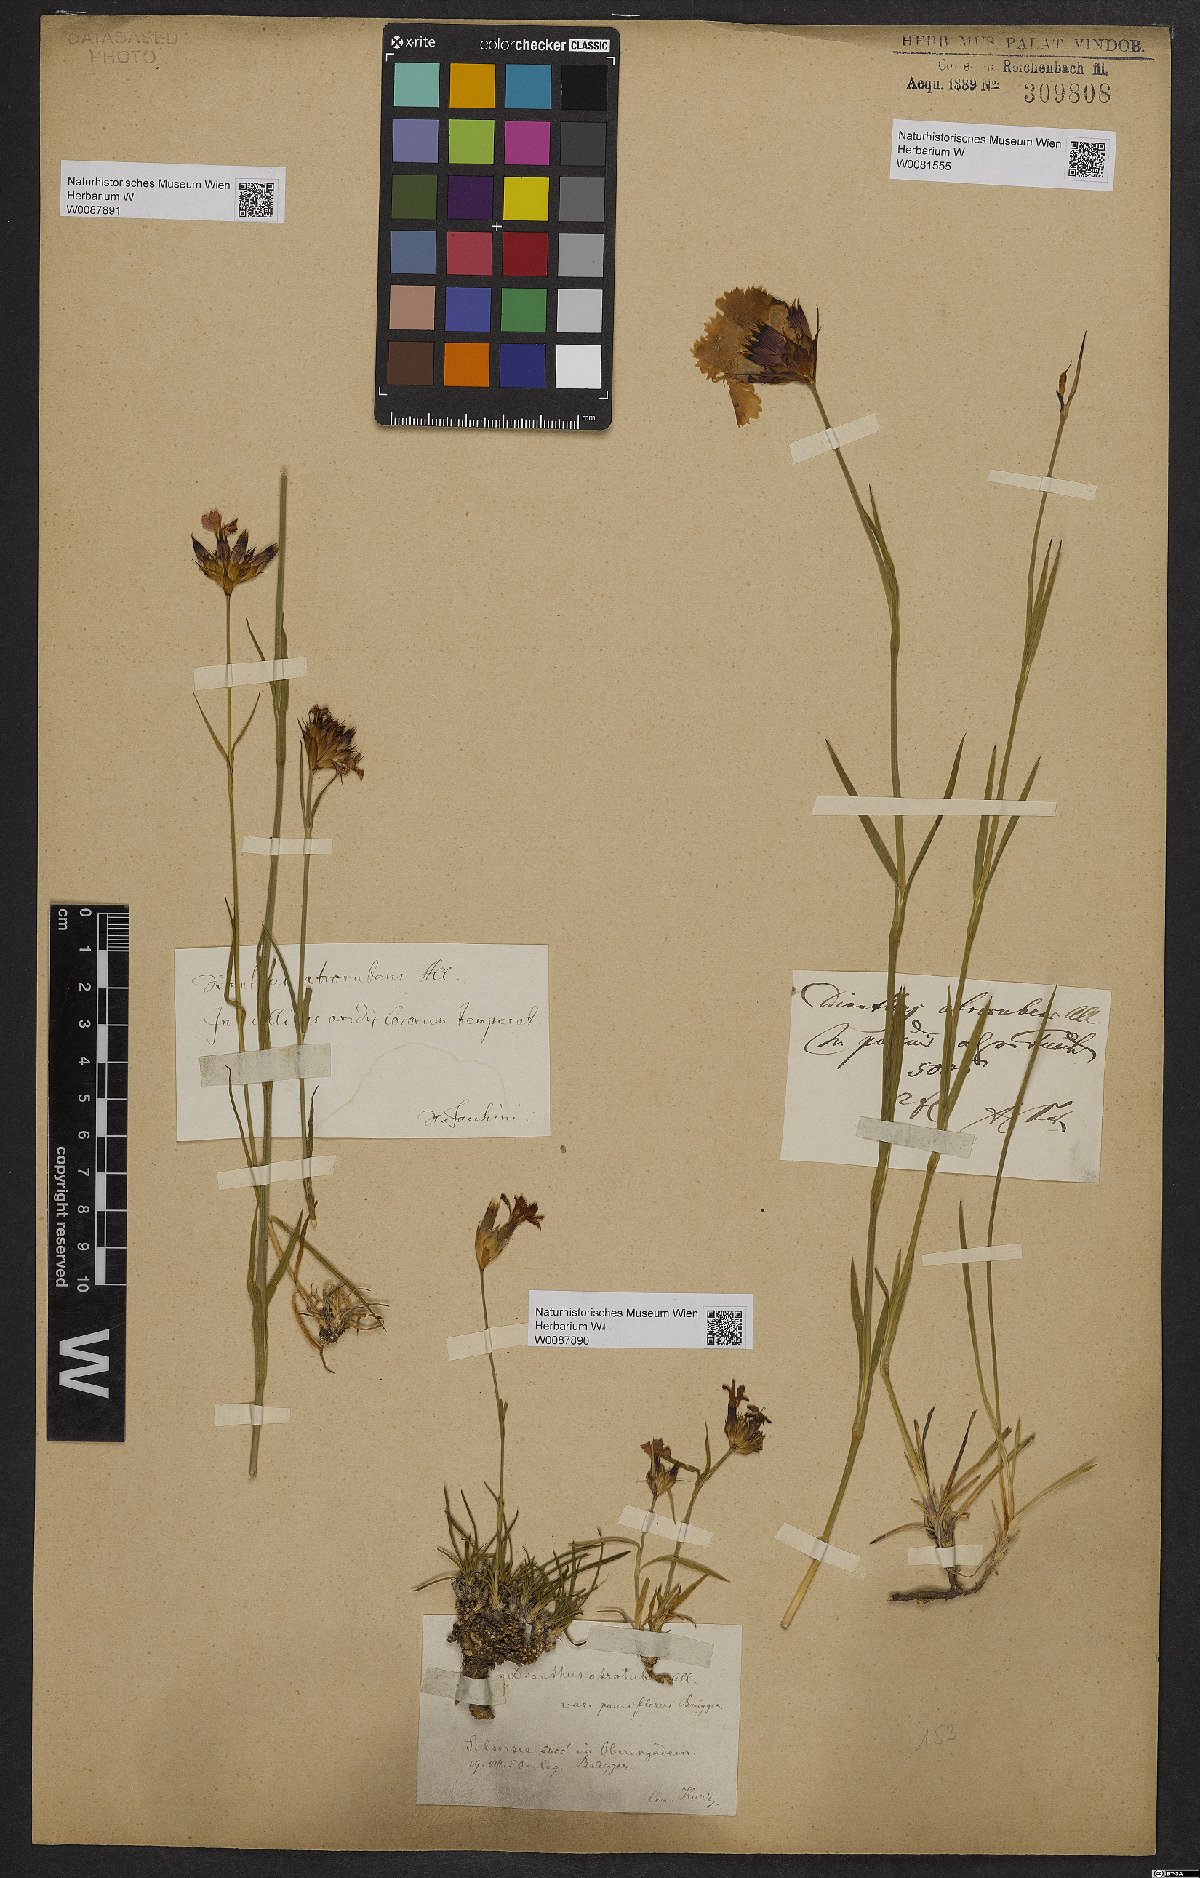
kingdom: Plantae
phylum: Tracheophyta
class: Magnoliopsida
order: Caryophyllales
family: Caryophyllaceae
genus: Dianthus
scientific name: Dianthus atrorubens
